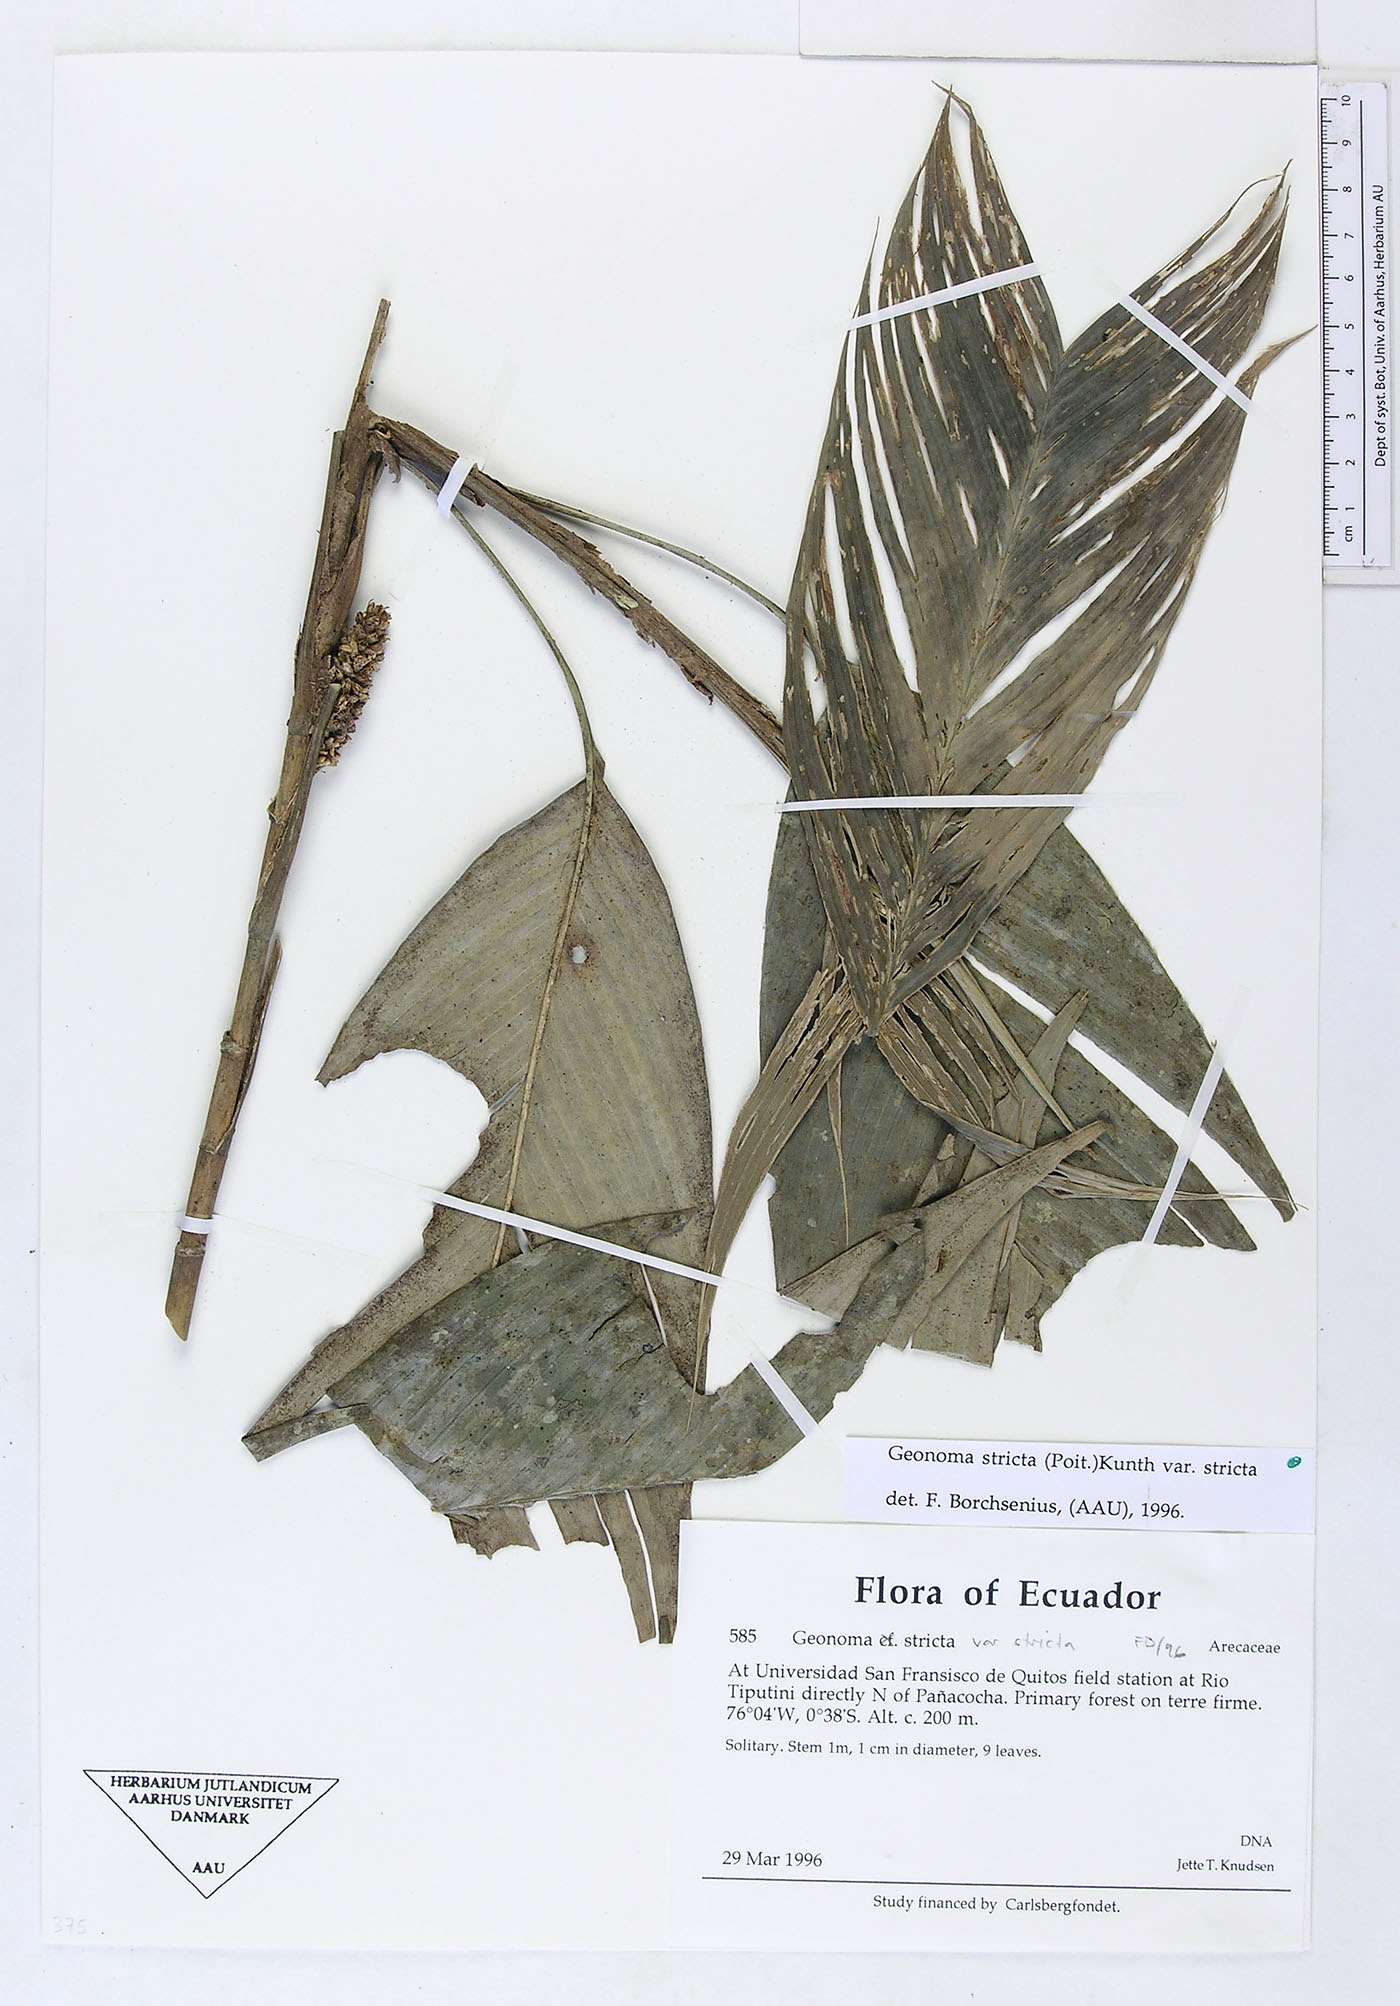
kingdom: Plantae
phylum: Tracheophyta
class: Liliopsida
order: Arecales
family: Arecaceae
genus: Geonoma
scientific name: Geonoma stricta
